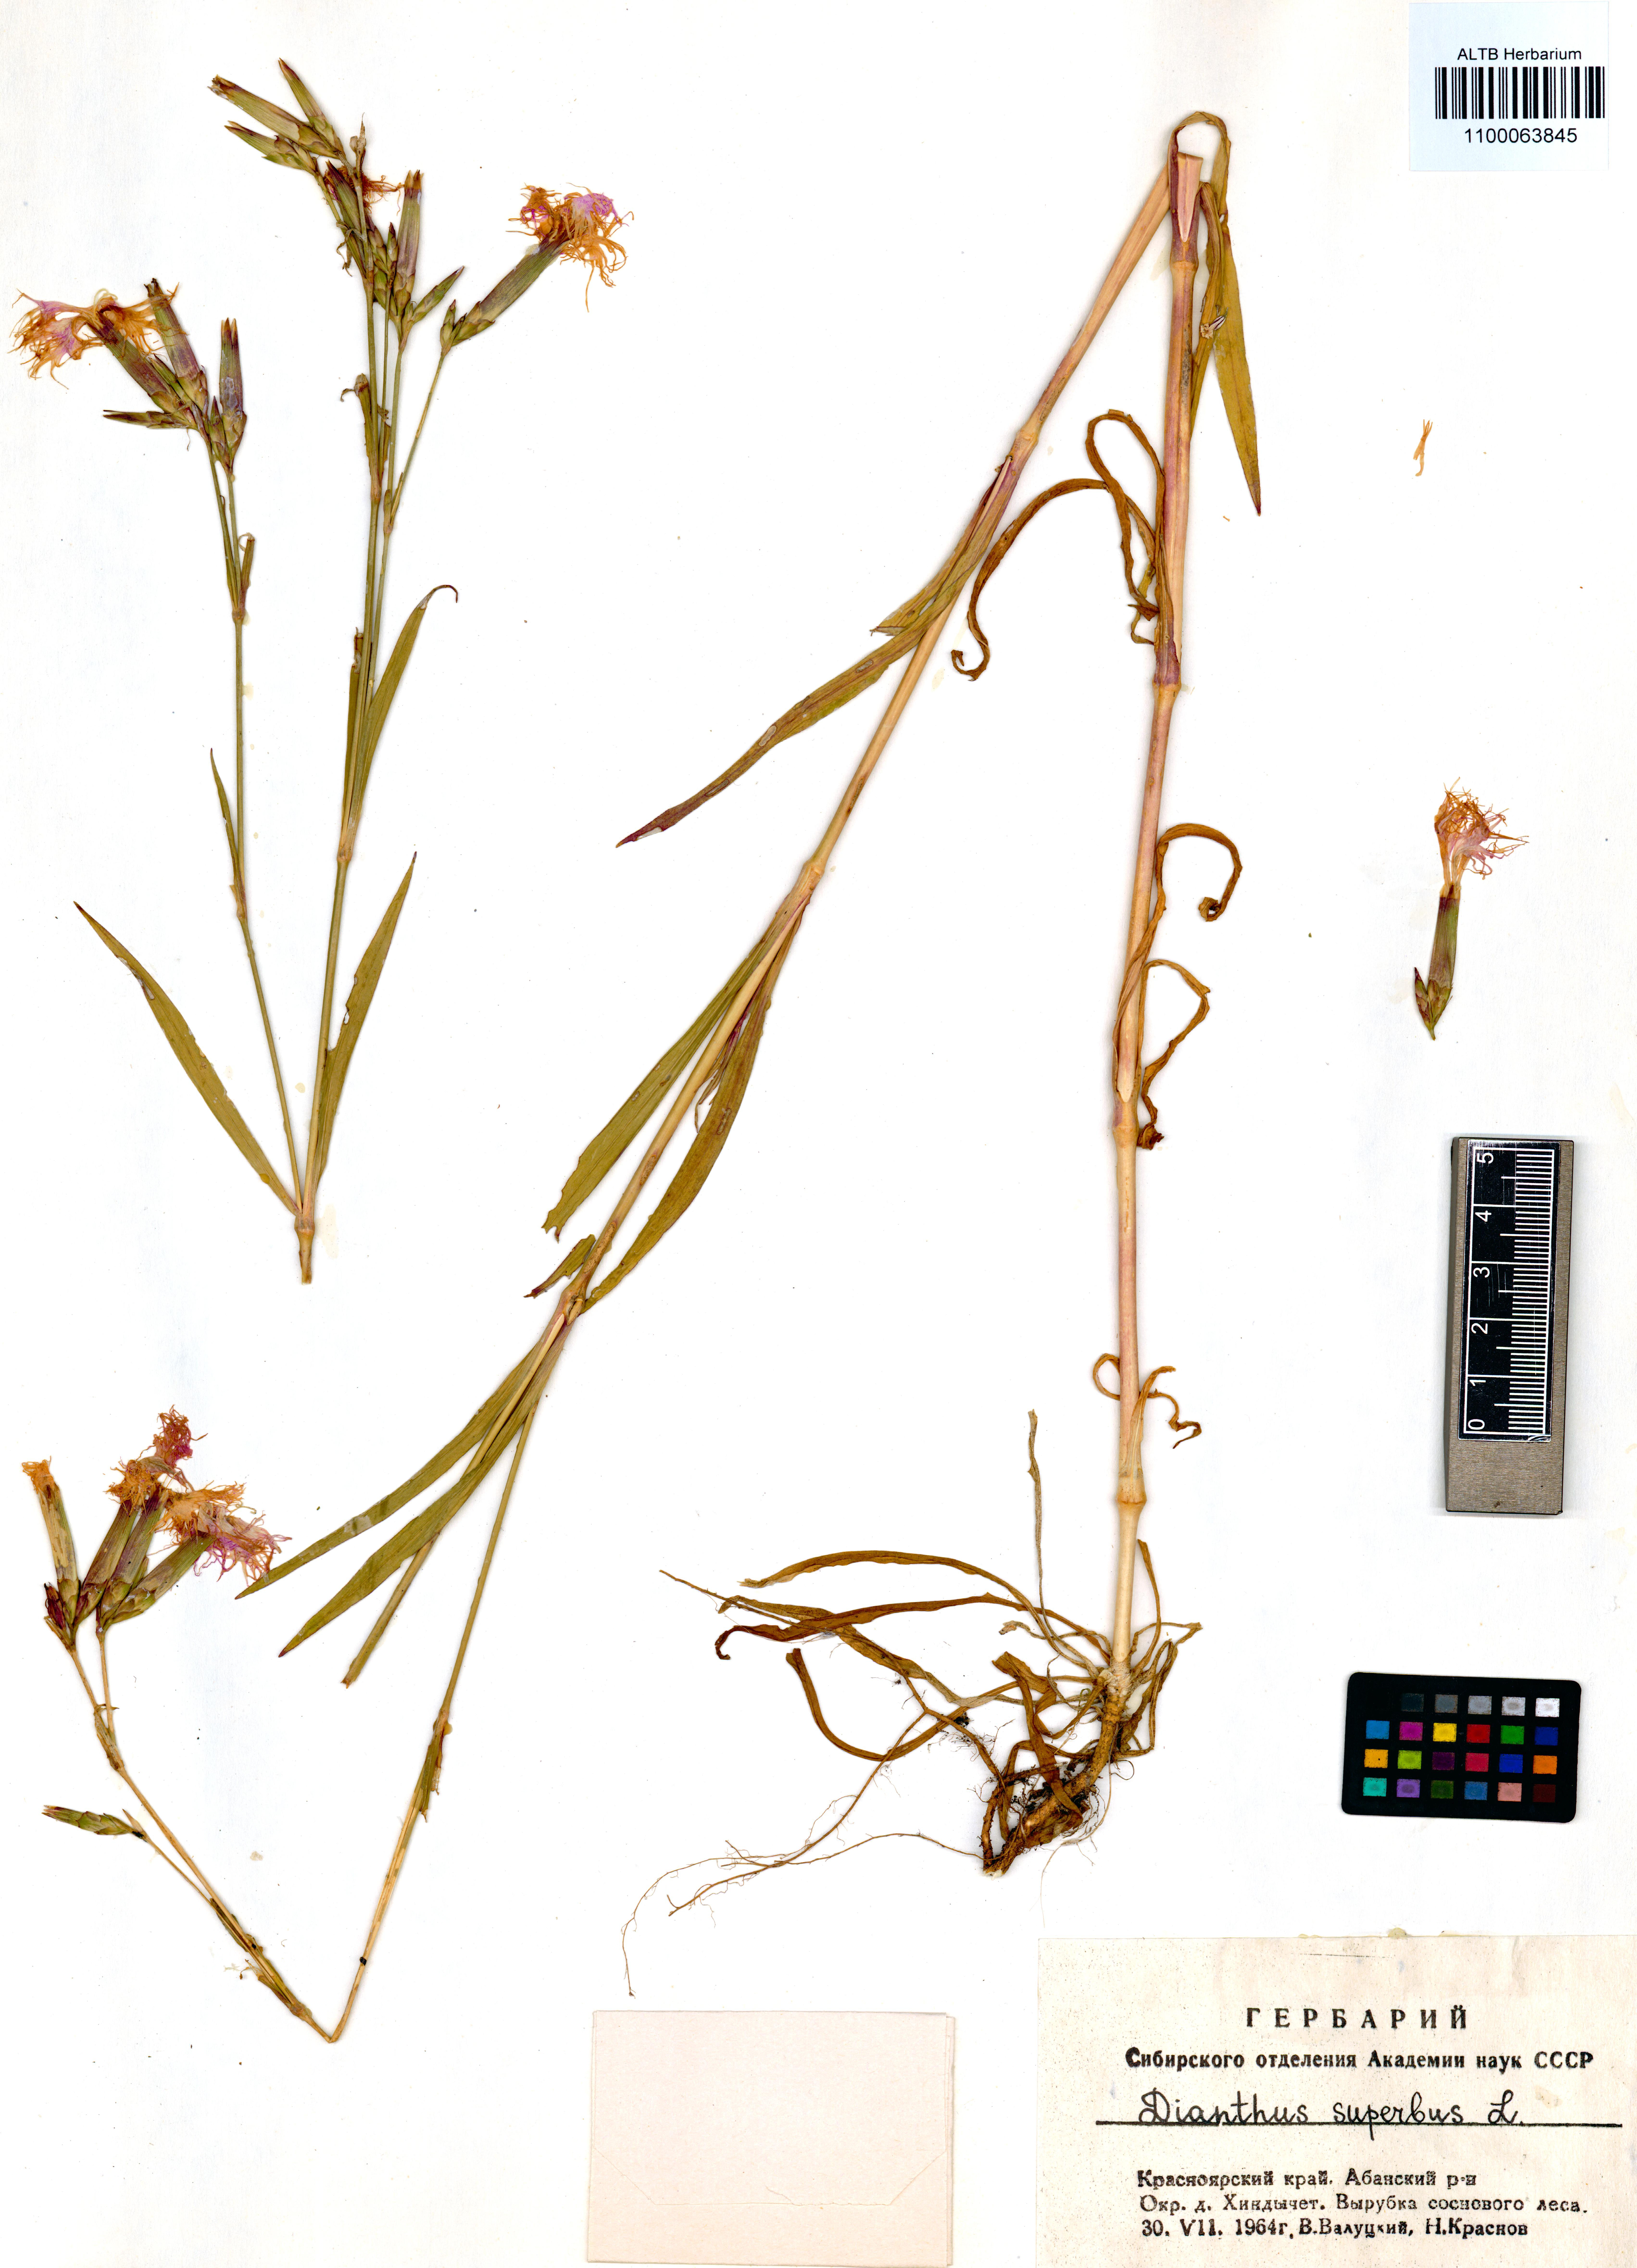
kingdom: Plantae
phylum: Tracheophyta
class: Magnoliopsida
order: Caryophyllales
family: Caryophyllaceae
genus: Dianthus
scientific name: Dianthus superbus
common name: Fringed pink
